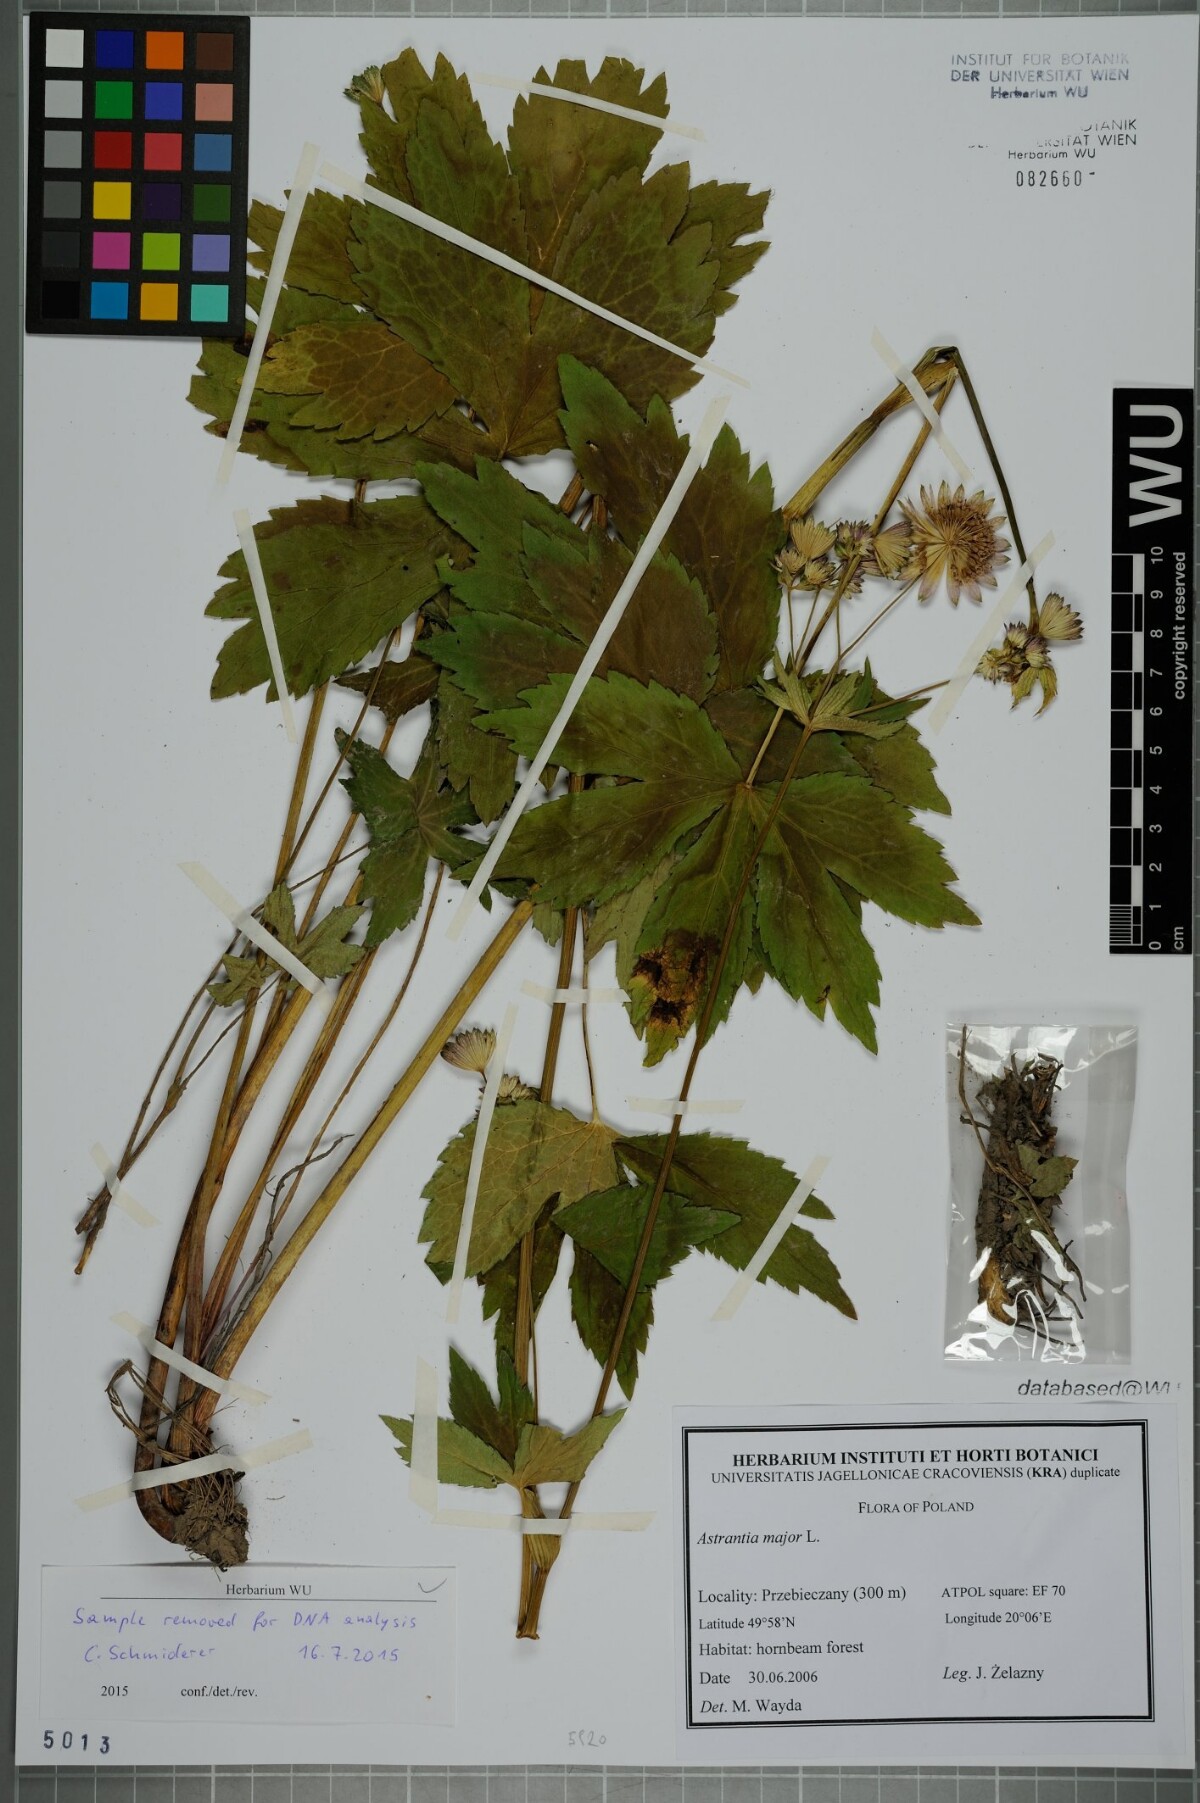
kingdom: Plantae
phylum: Tracheophyta
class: Magnoliopsida
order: Apiales
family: Apiaceae
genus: Astrantia
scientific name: Astrantia major
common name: Greater masterwort
